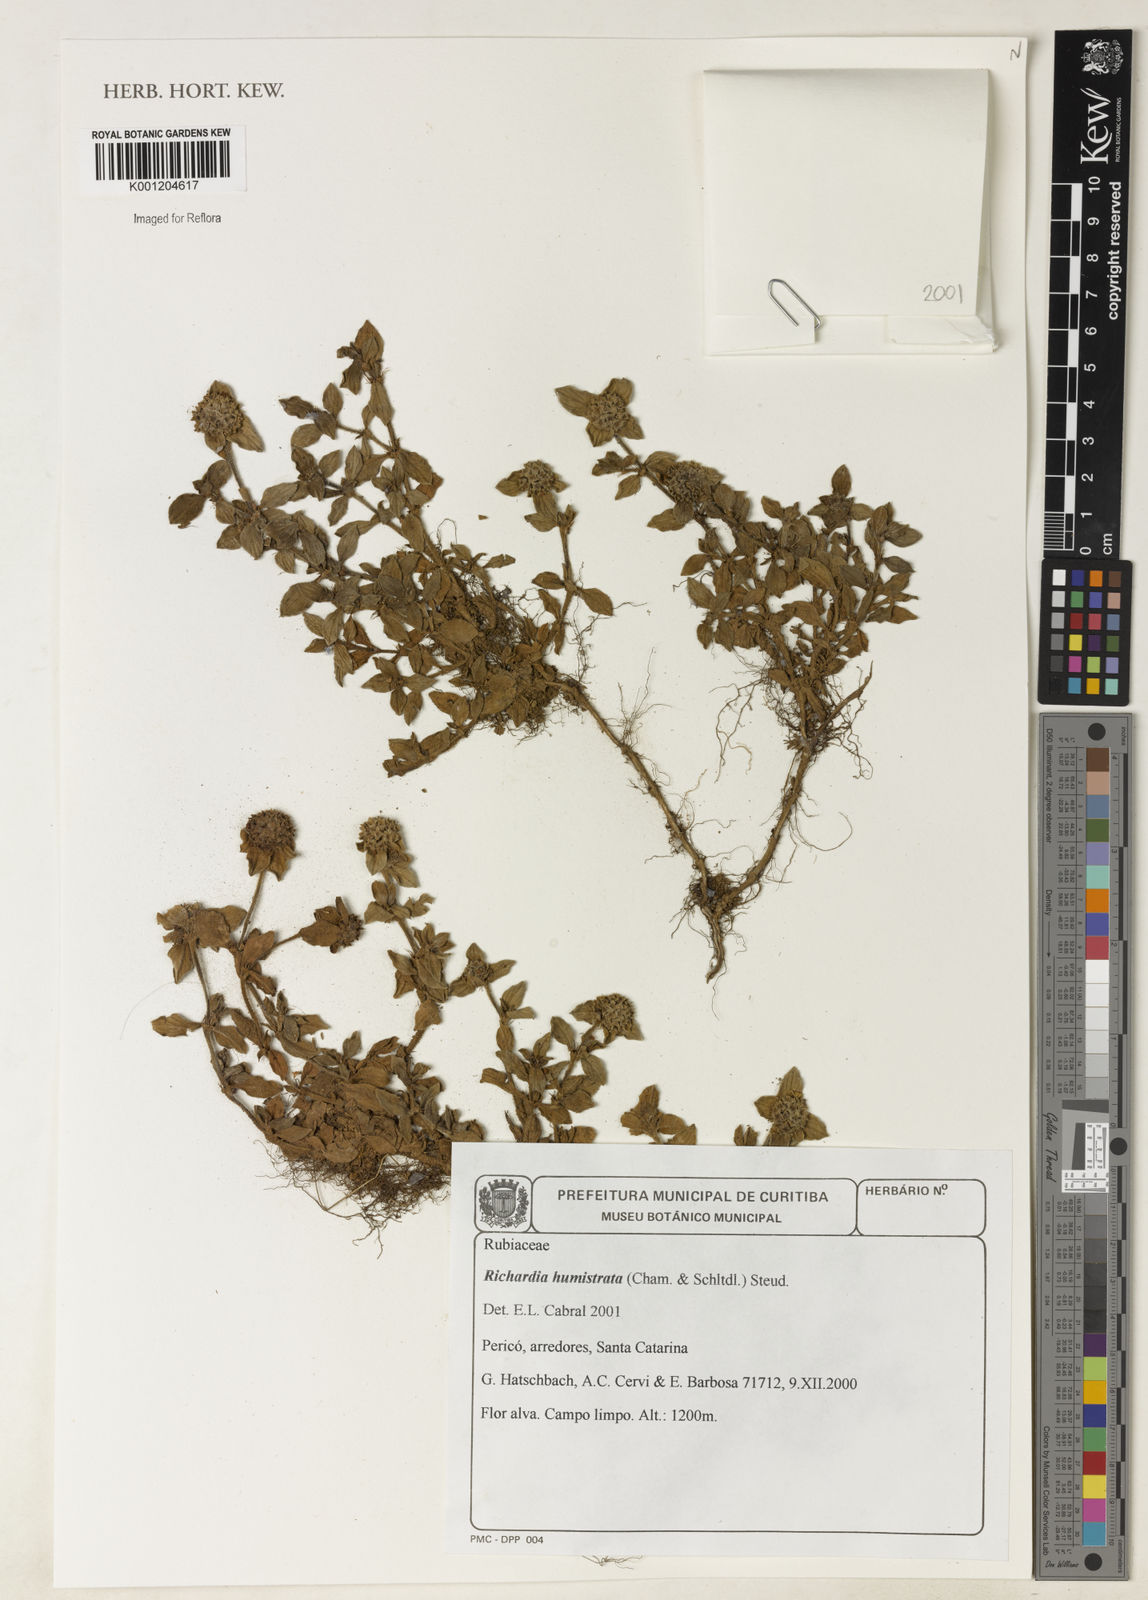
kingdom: Plantae
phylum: Tracheophyta
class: Magnoliopsida
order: Gentianales
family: Rubiaceae
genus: Richardia
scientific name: Richardia humistrata
